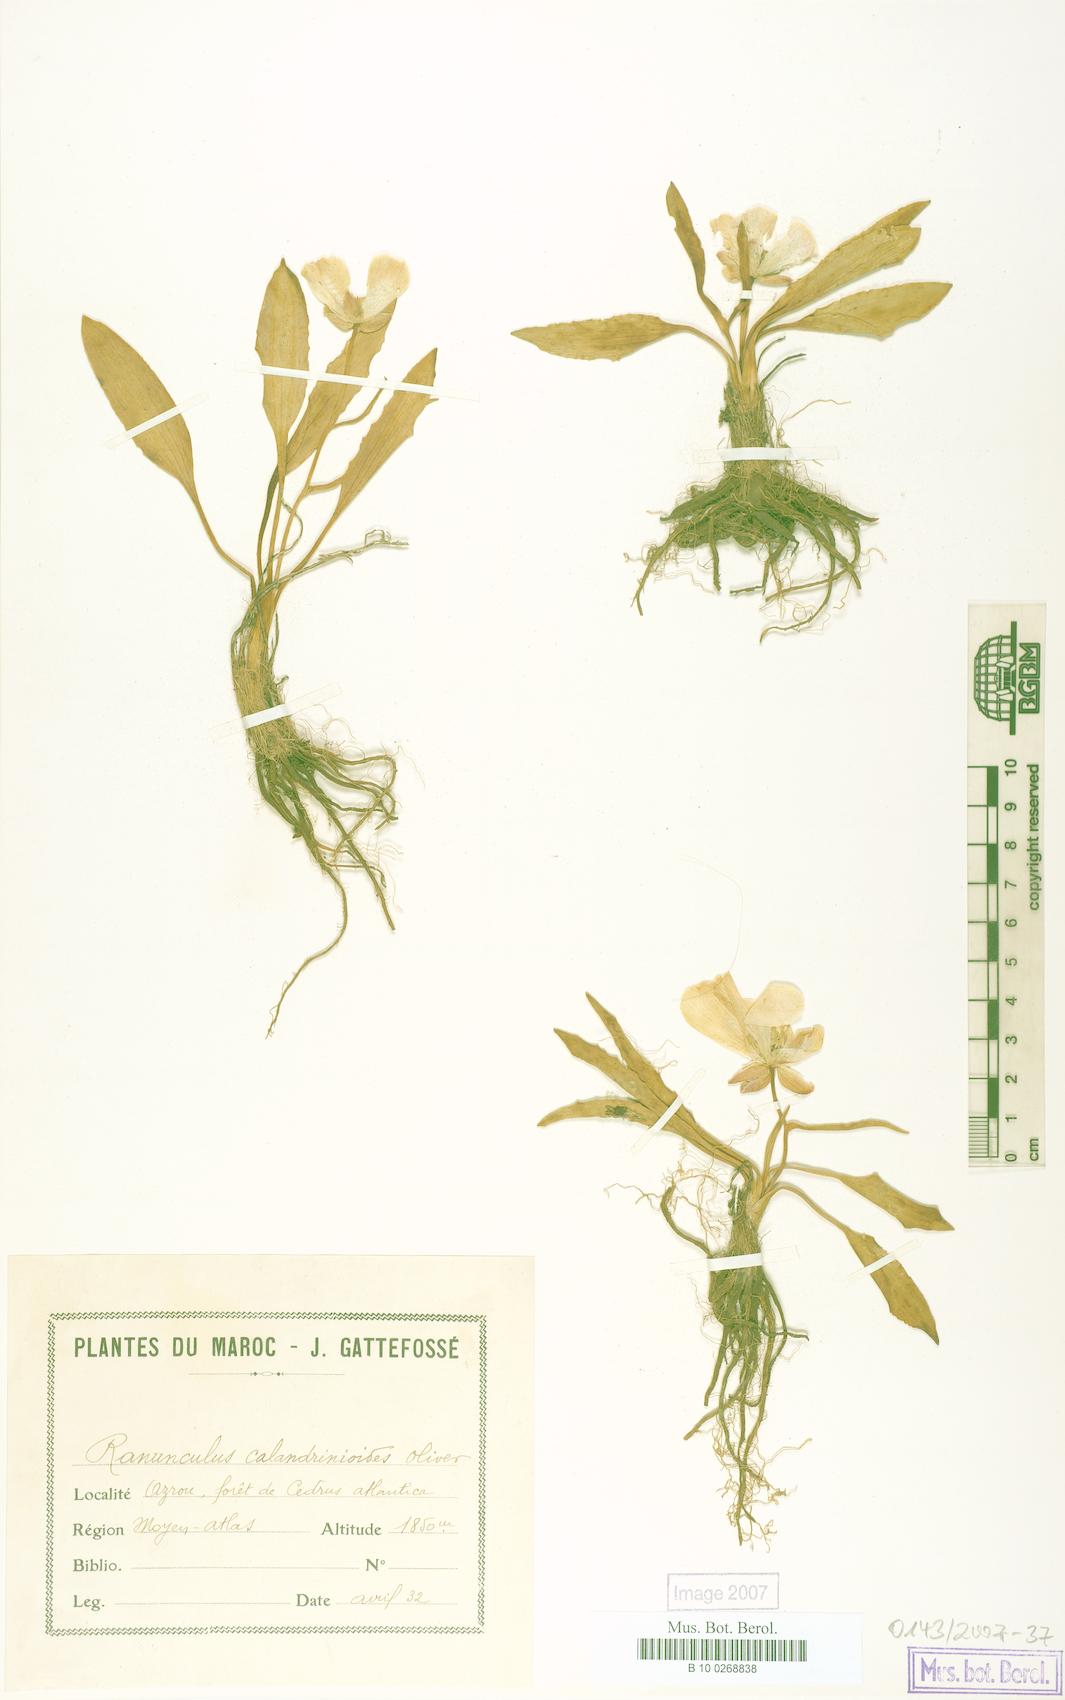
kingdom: Plantae
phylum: Tracheophyta
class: Magnoliopsida
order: Ranunculales
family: Ranunculaceae
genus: Ranunculus
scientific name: Ranunculus calandrinioides
